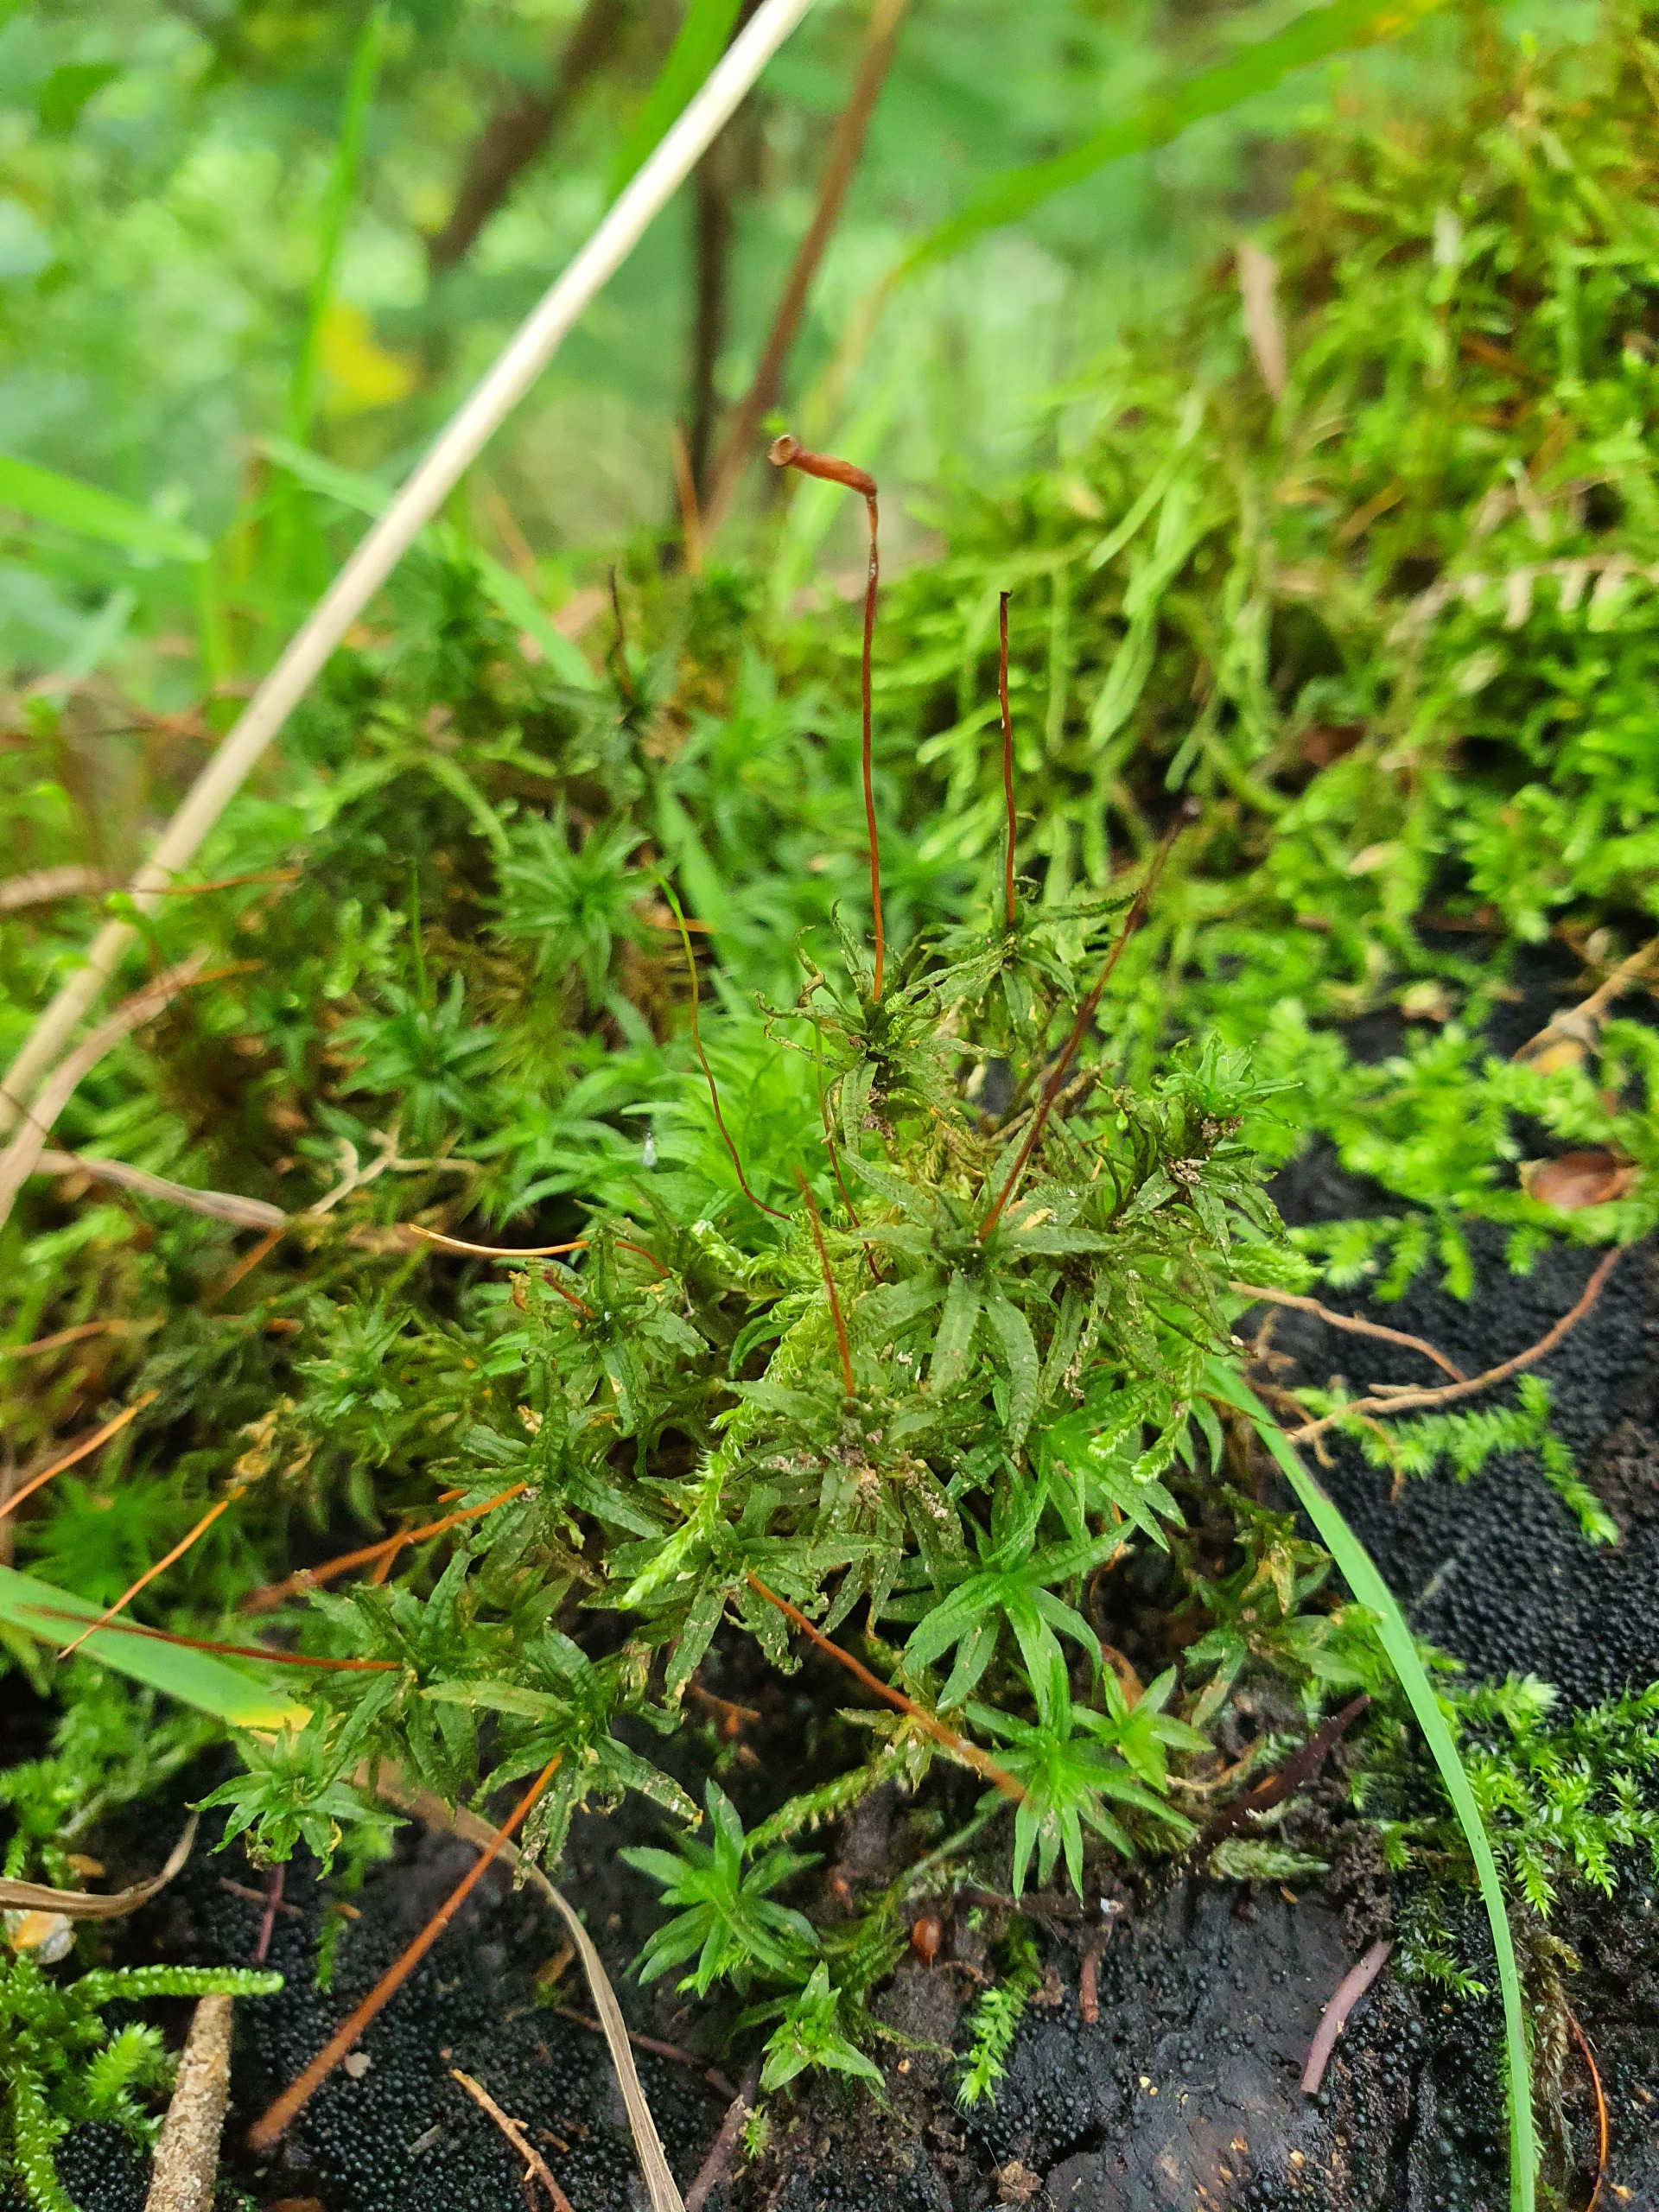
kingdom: Plantae
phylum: Bryophyta
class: Polytrichopsida
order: Polytrichales
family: Polytrichaceae
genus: Atrichum
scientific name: Atrichum undulatum
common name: Bølget katrinemos
